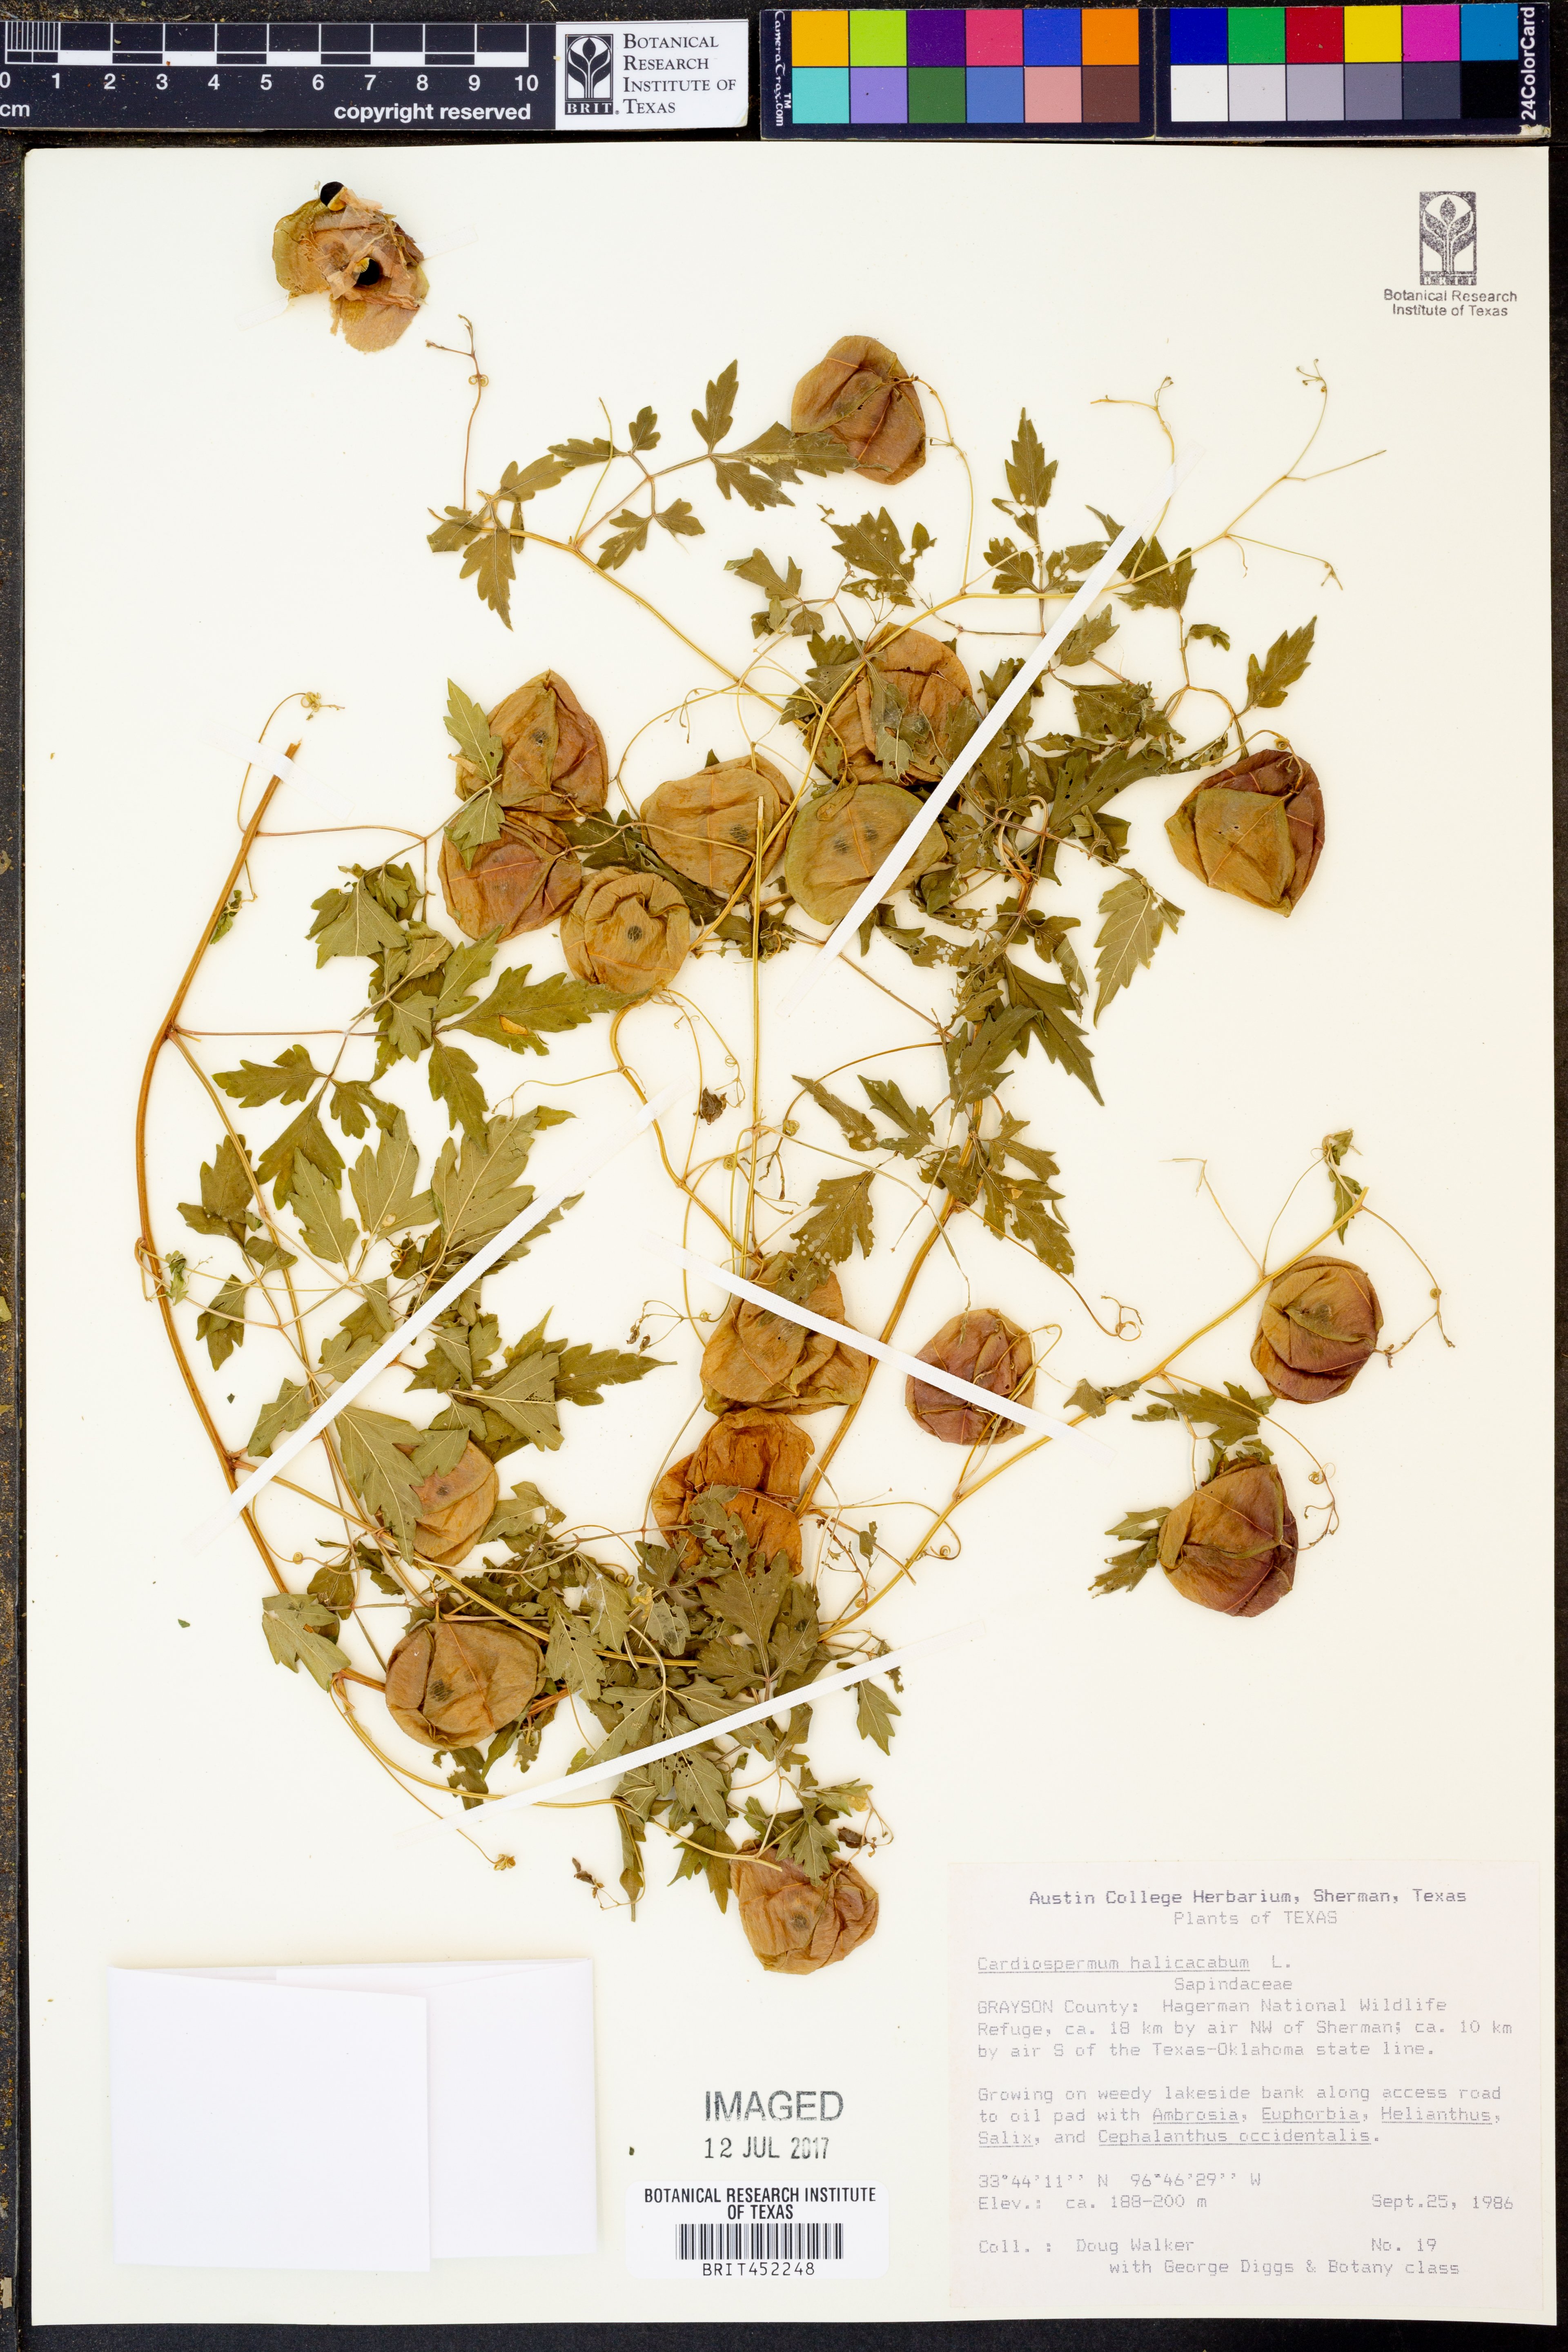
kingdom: Plantae
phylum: Tracheophyta
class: Magnoliopsida
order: Sapindales
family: Sapindaceae
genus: Cardiospermum
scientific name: Cardiospermum halicacabum
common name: Balloon vine
